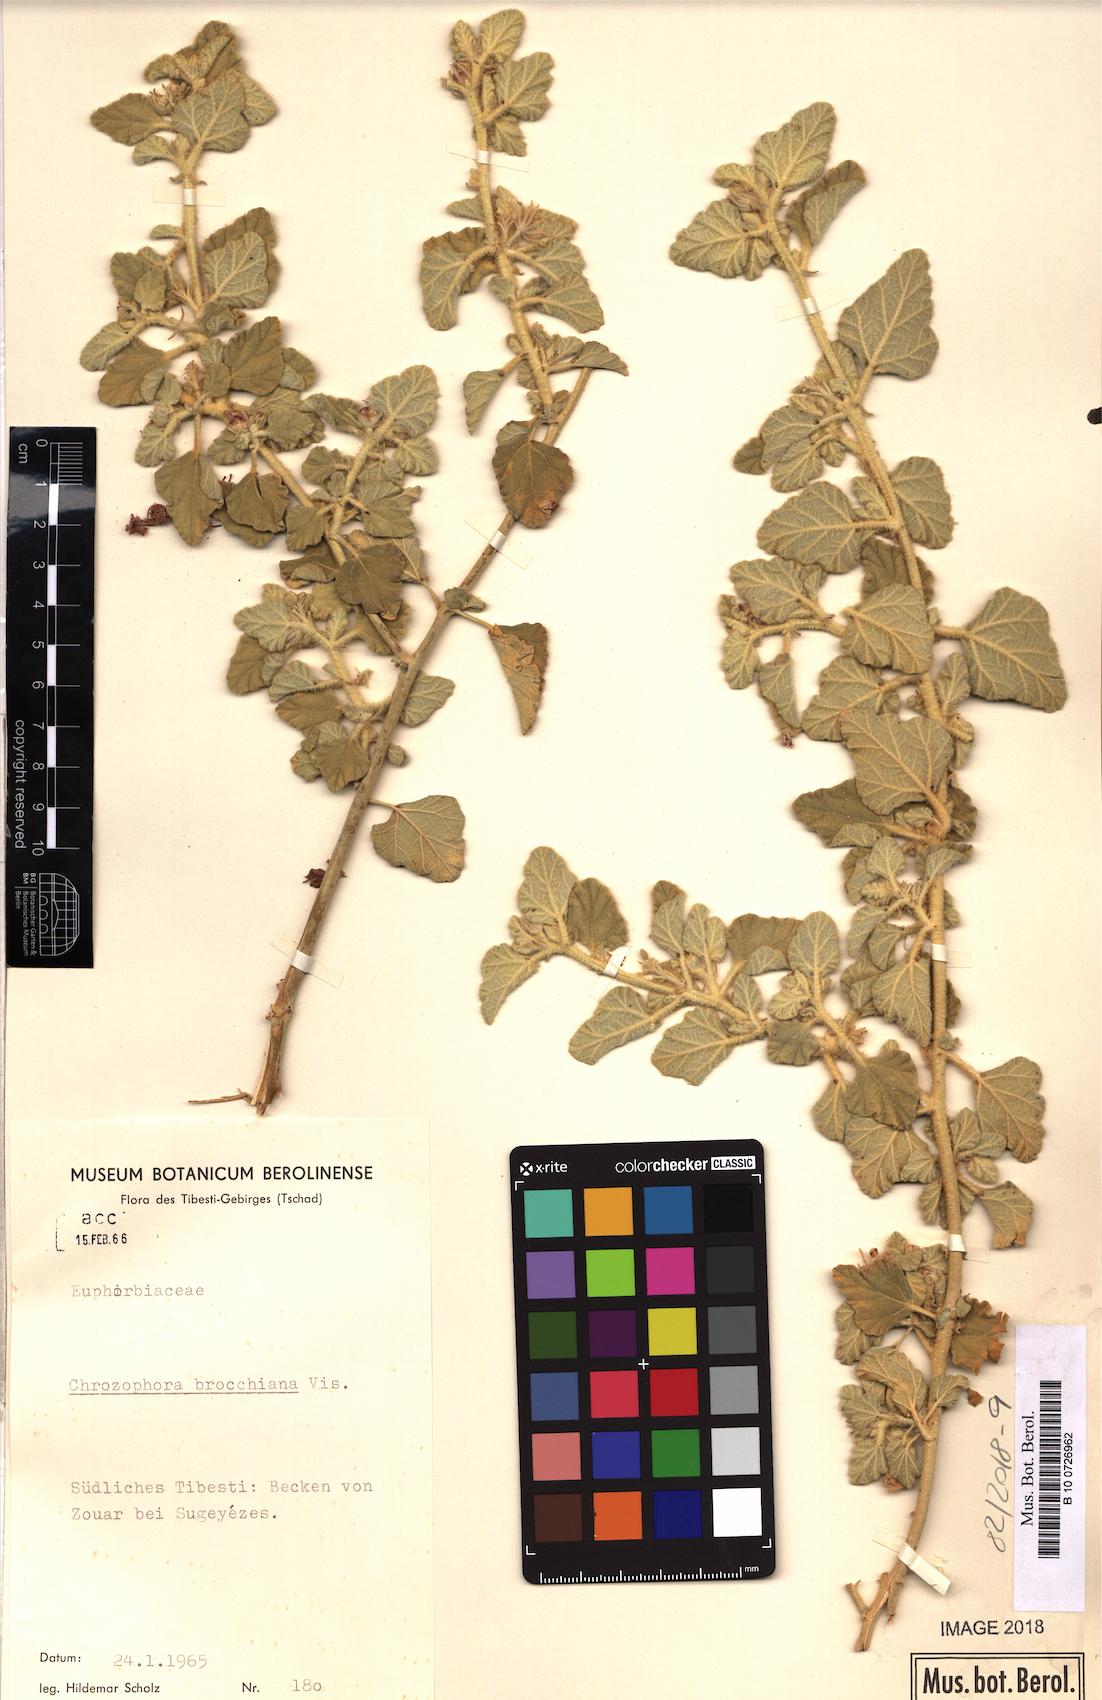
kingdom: Plantae
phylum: Tracheophyta
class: Magnoliopsida
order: Malpighiales
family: Euphorbiaceae
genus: Chrozophora
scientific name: Chrozophora brocchiana
